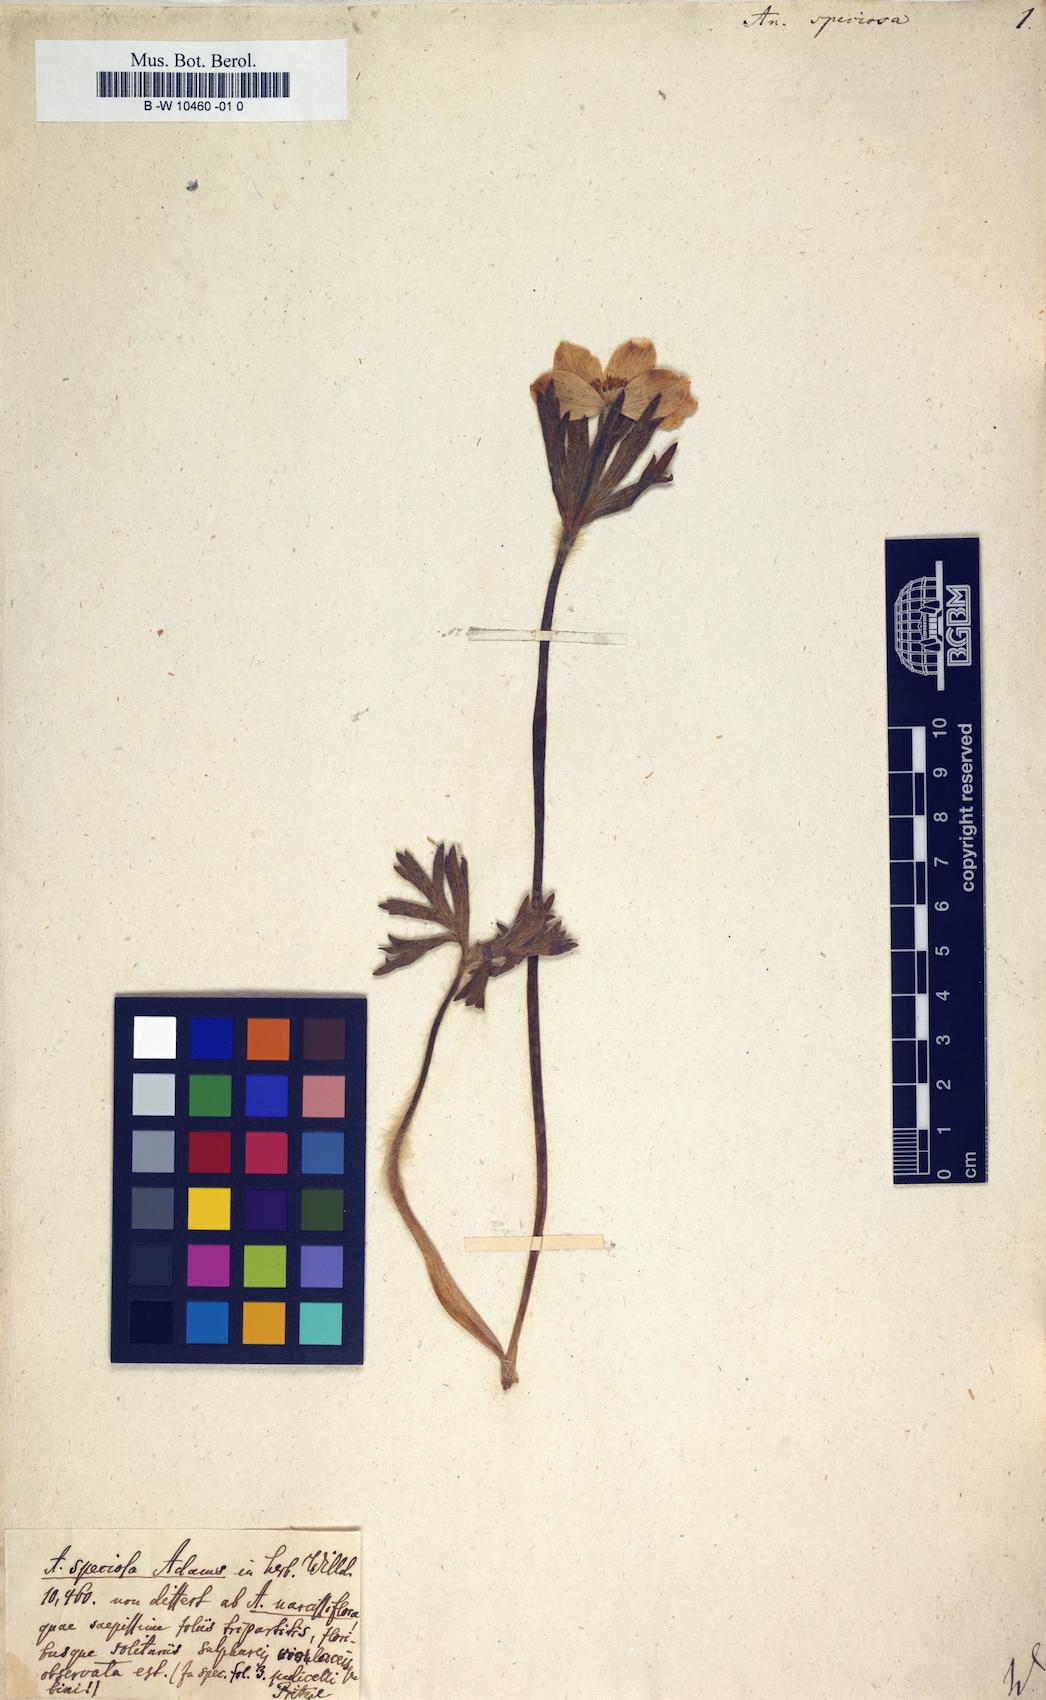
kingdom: Plantae
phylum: Tracheophyta
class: Magnoliopsida
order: Ranunculales
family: Ranunculaceae
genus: Anemonastrum
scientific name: Anemonastrum narcissiflorum
